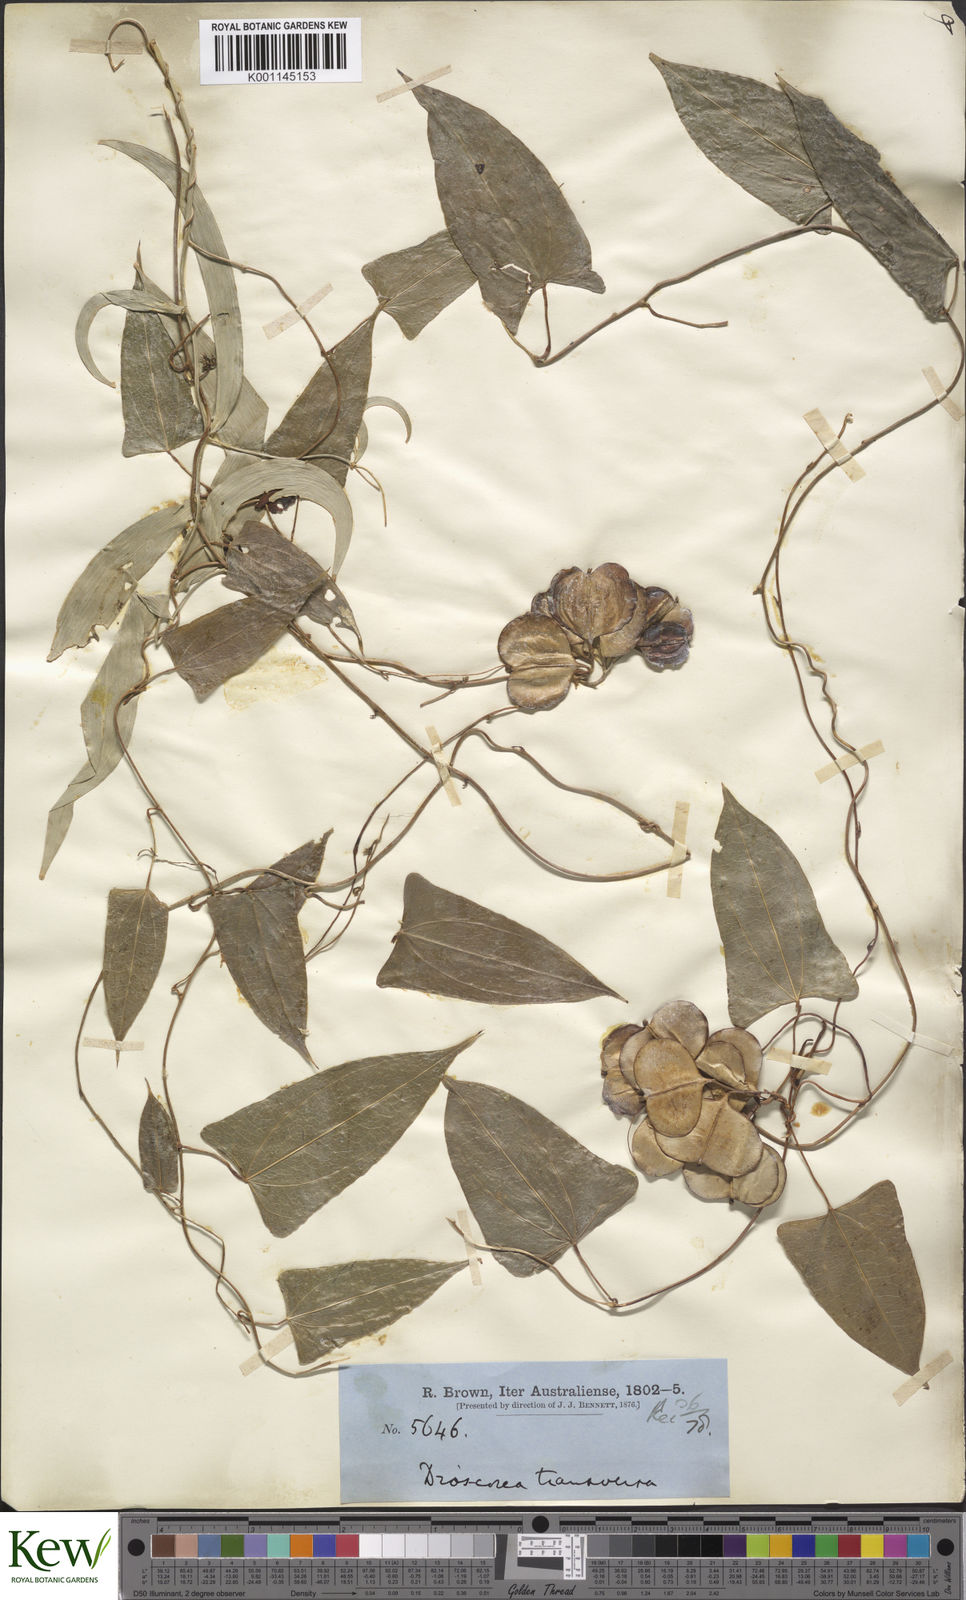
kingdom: Plantae
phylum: Tracheophyta
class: Liliopsida
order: Dioscoreales
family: Dioscoreaceae
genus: Dioscorea
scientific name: Dioscorea transversa
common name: Long yam
